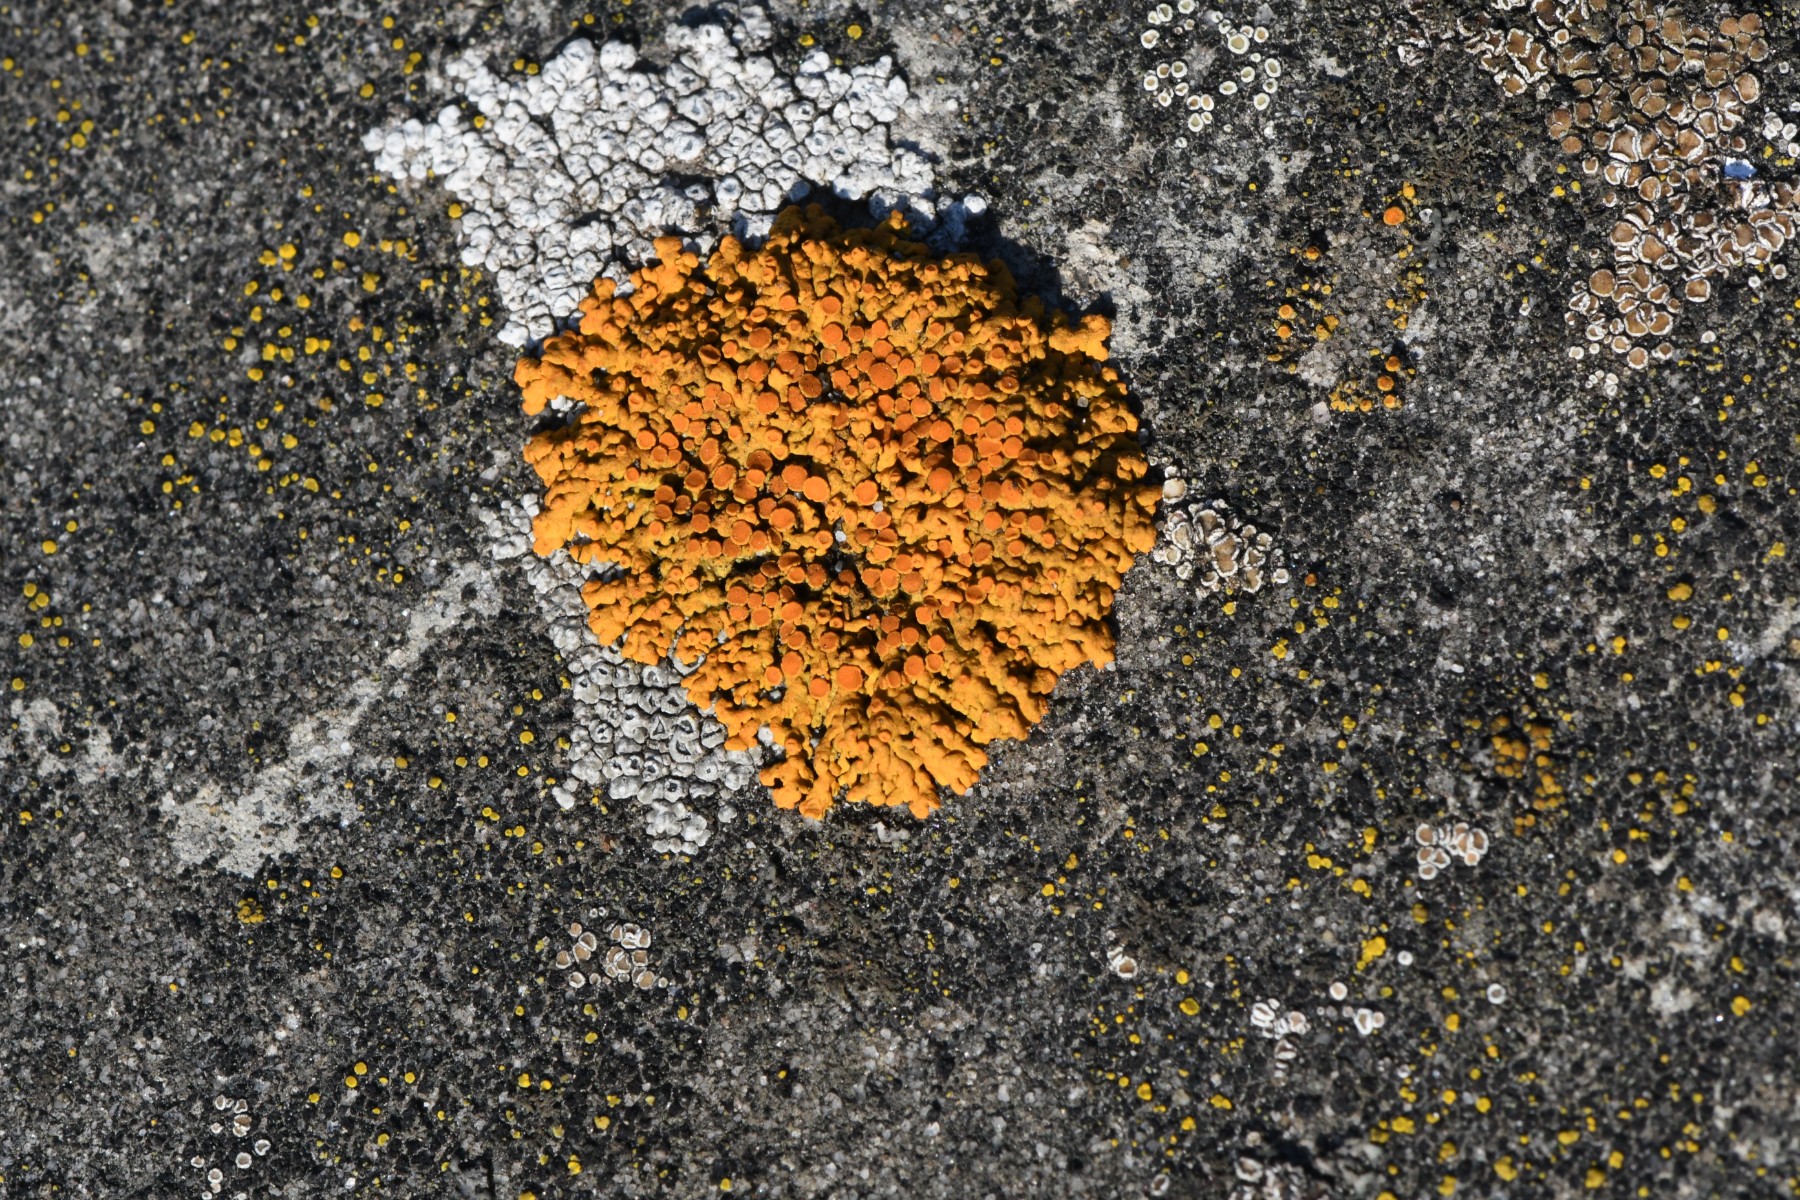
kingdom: Fungi
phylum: Ascomycota
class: Lecanoromycetes
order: Teloschistales
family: Teloschistaceae
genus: Xanthoria
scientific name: Xanthoria elegans
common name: fjeld-væggelav
